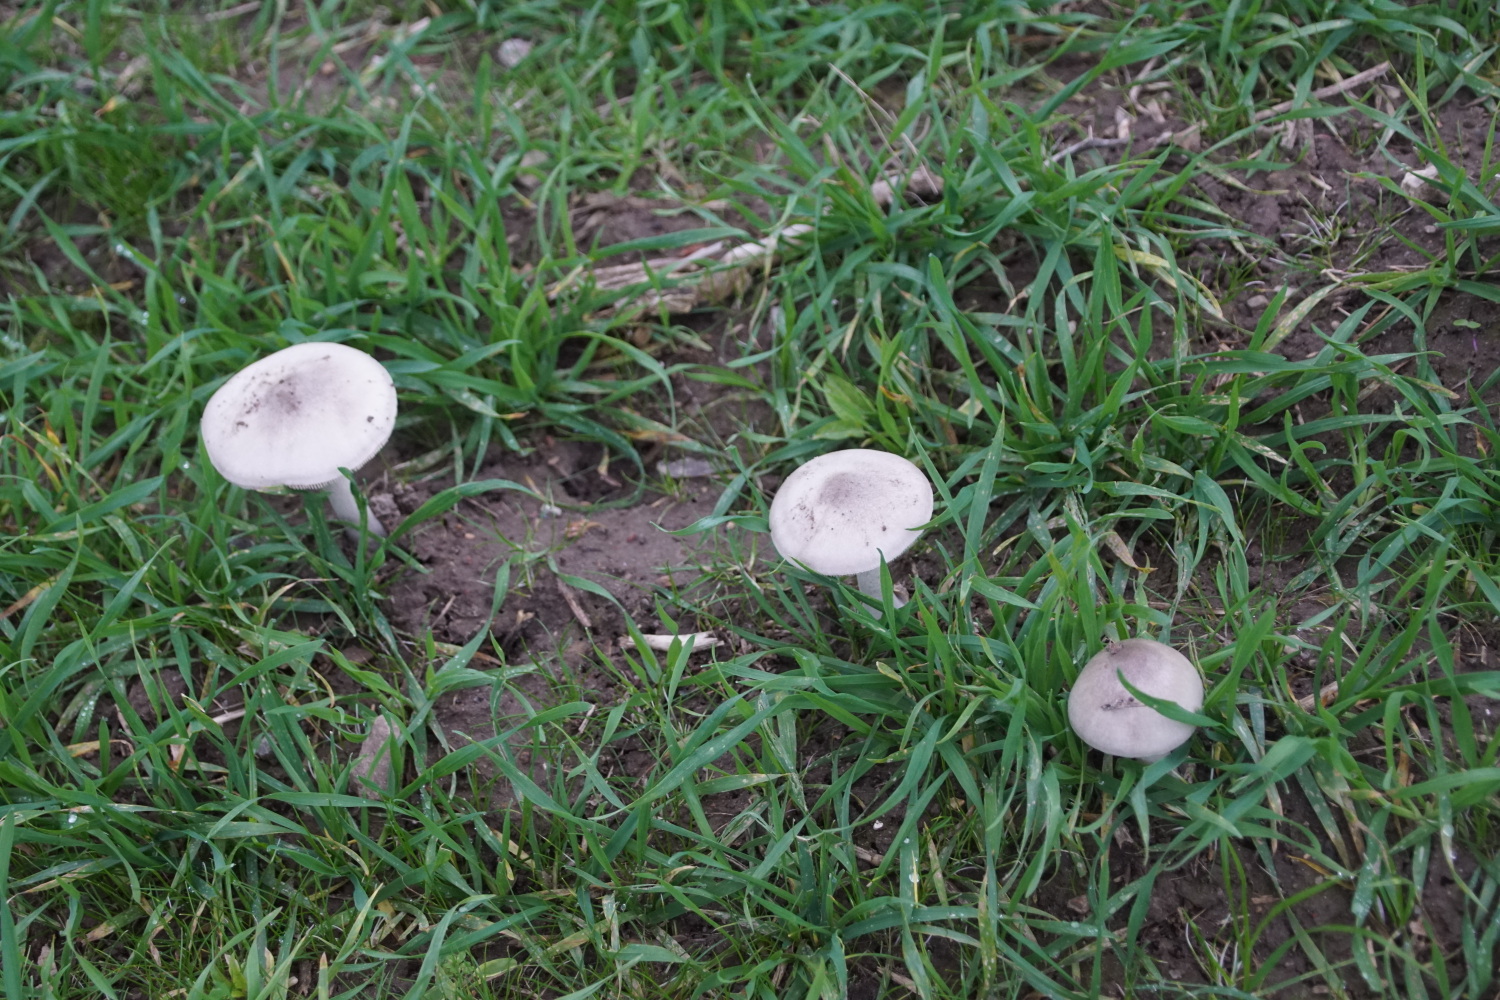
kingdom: Fungi
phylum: Basidiomycota
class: Agaricomycetes
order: Agaricales
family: Pluteaceae
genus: Volvopluteus
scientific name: Volvopluteus gloiocephalus
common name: høj posesvamp
